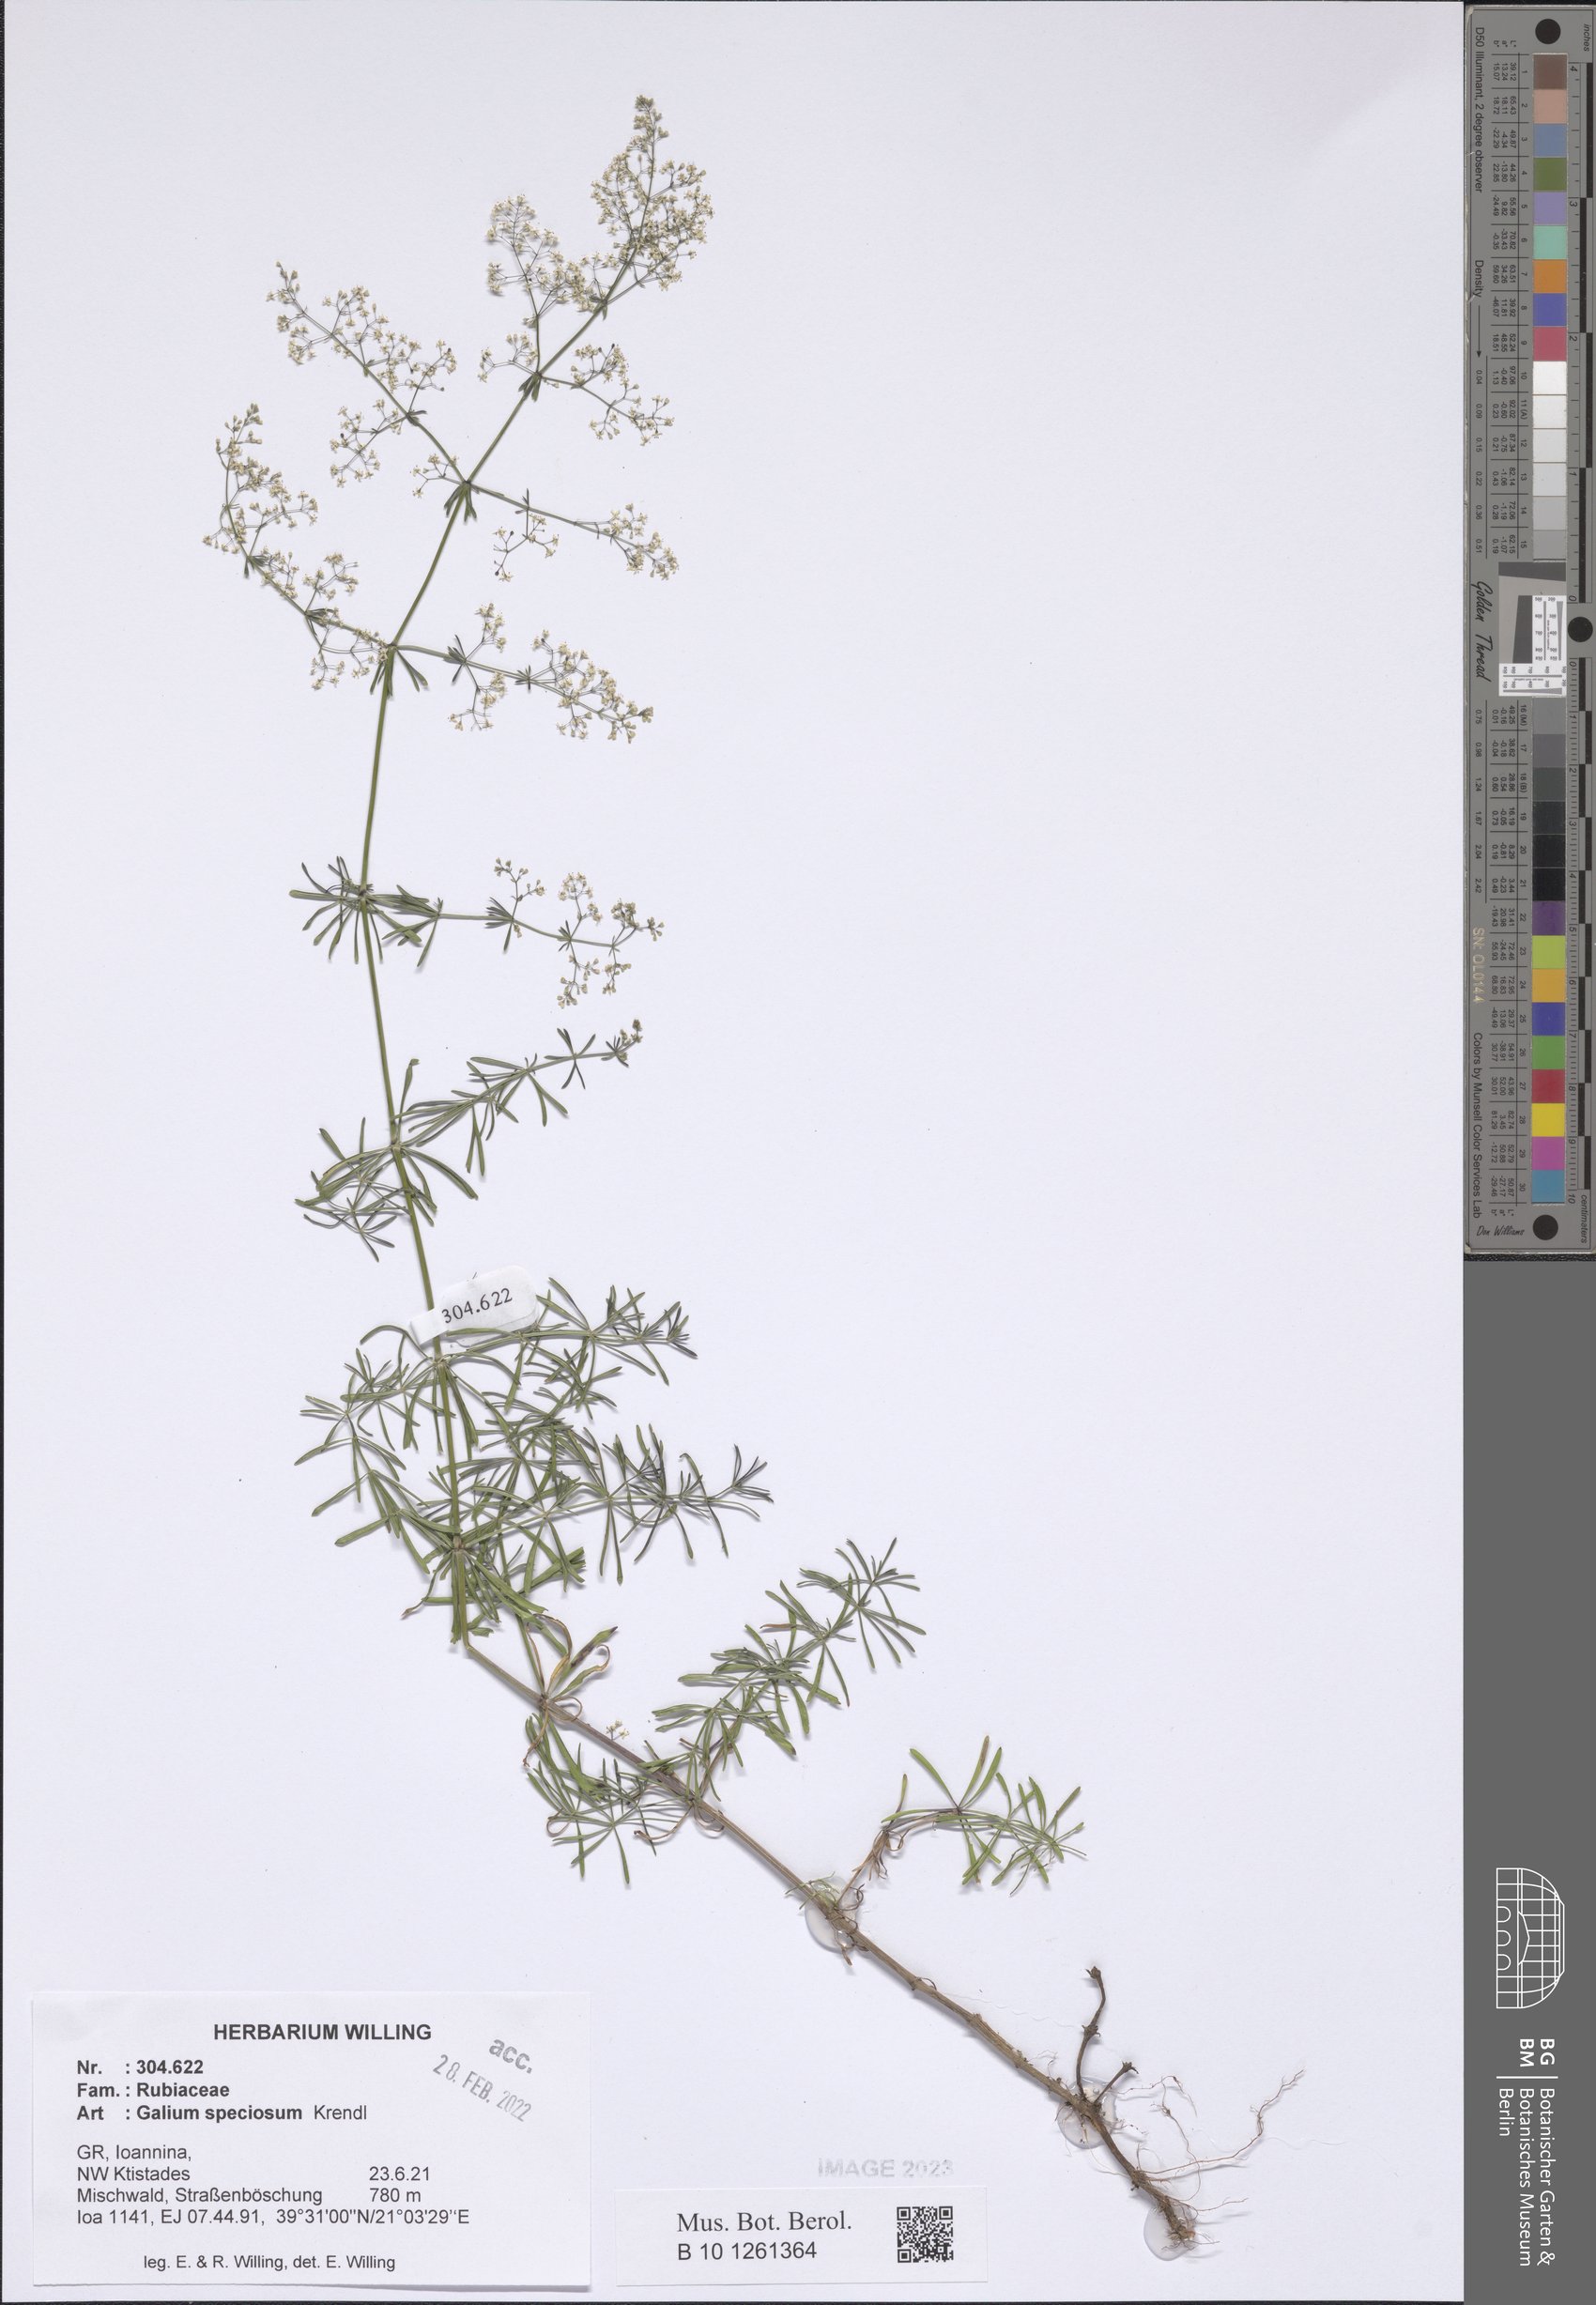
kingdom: Plantae
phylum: Tracheophyta
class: Magnoliopsida
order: Gentianales
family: Rubiaceae
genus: Galium
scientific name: Galium speciosum
